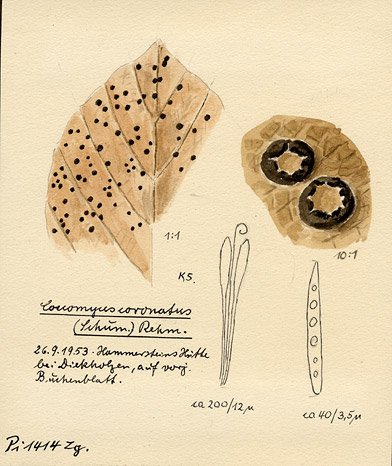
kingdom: Fungi
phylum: Ascomycota
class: Leotiomycetes
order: Rhytismatales
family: Rhytismataceae
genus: Coccomyces
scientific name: Coccomyces coronatus
